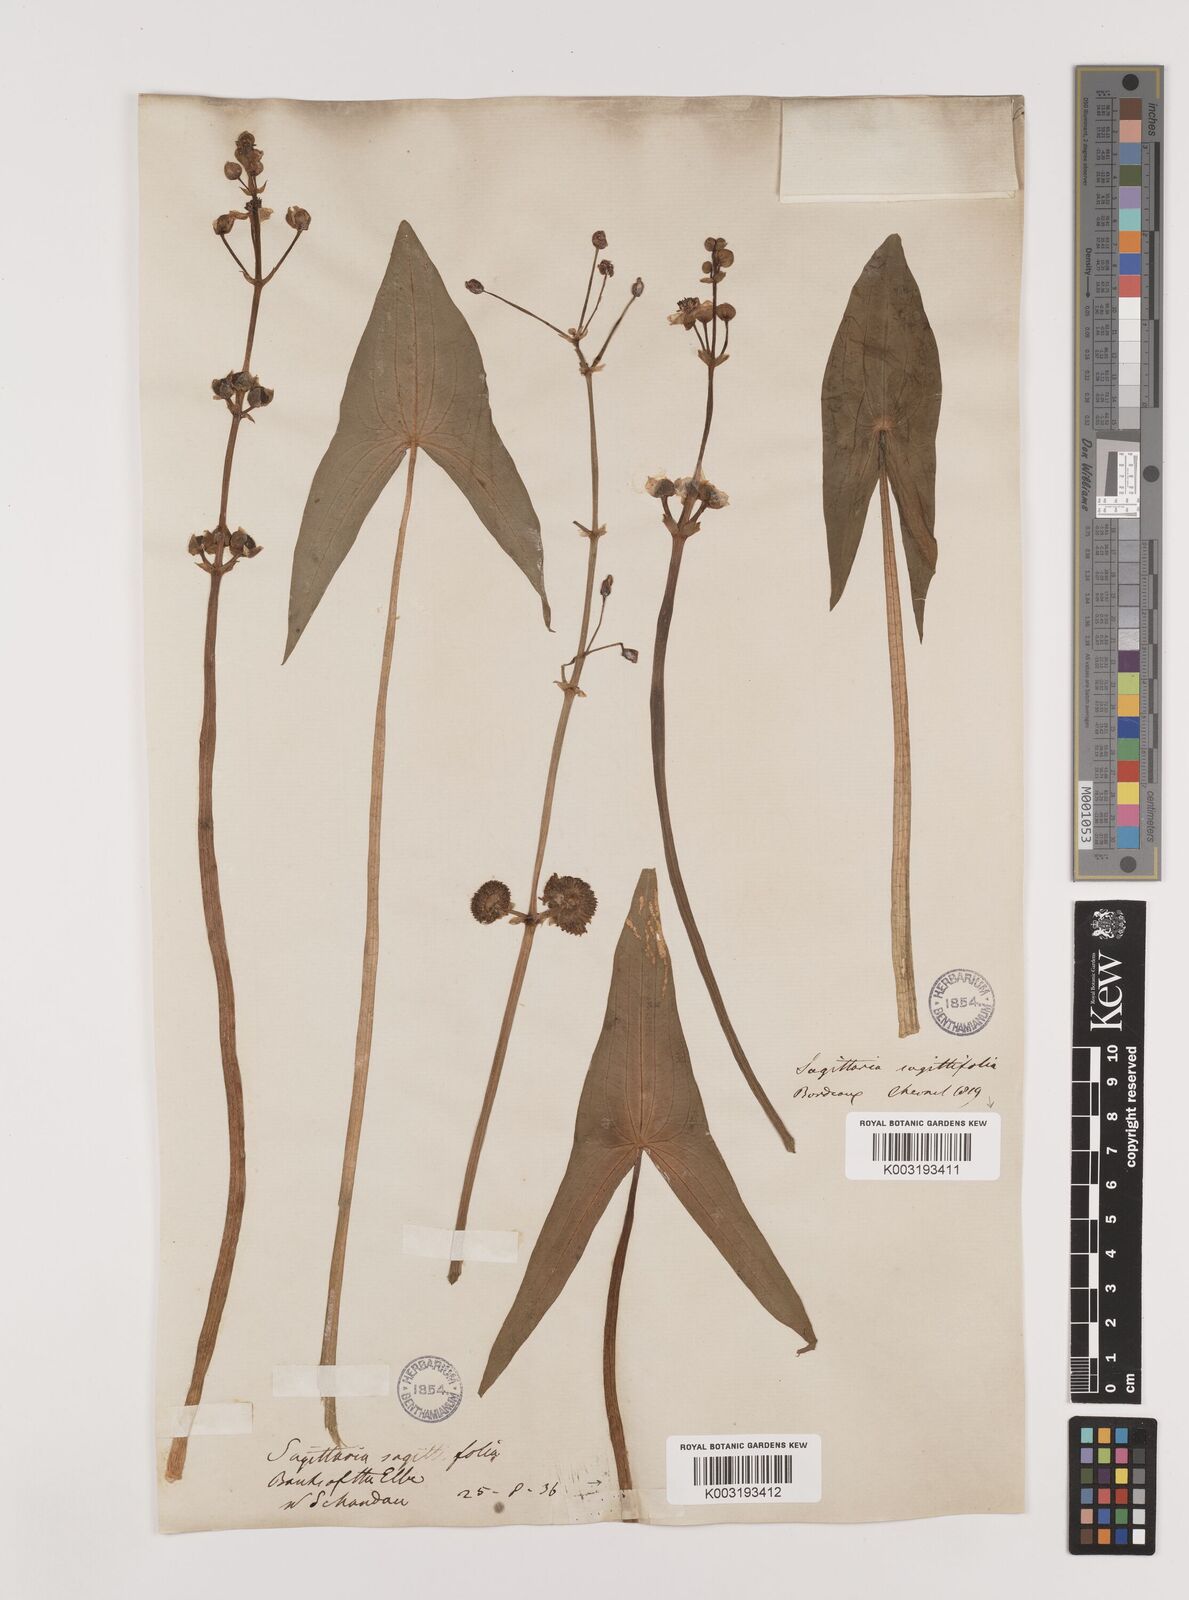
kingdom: Plantae
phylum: Tracheophyta
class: Liliopsida
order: Alismatales
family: Alismataceae
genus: Sagittaria
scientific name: Sagittaria sagittifolia
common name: Arrowhead
